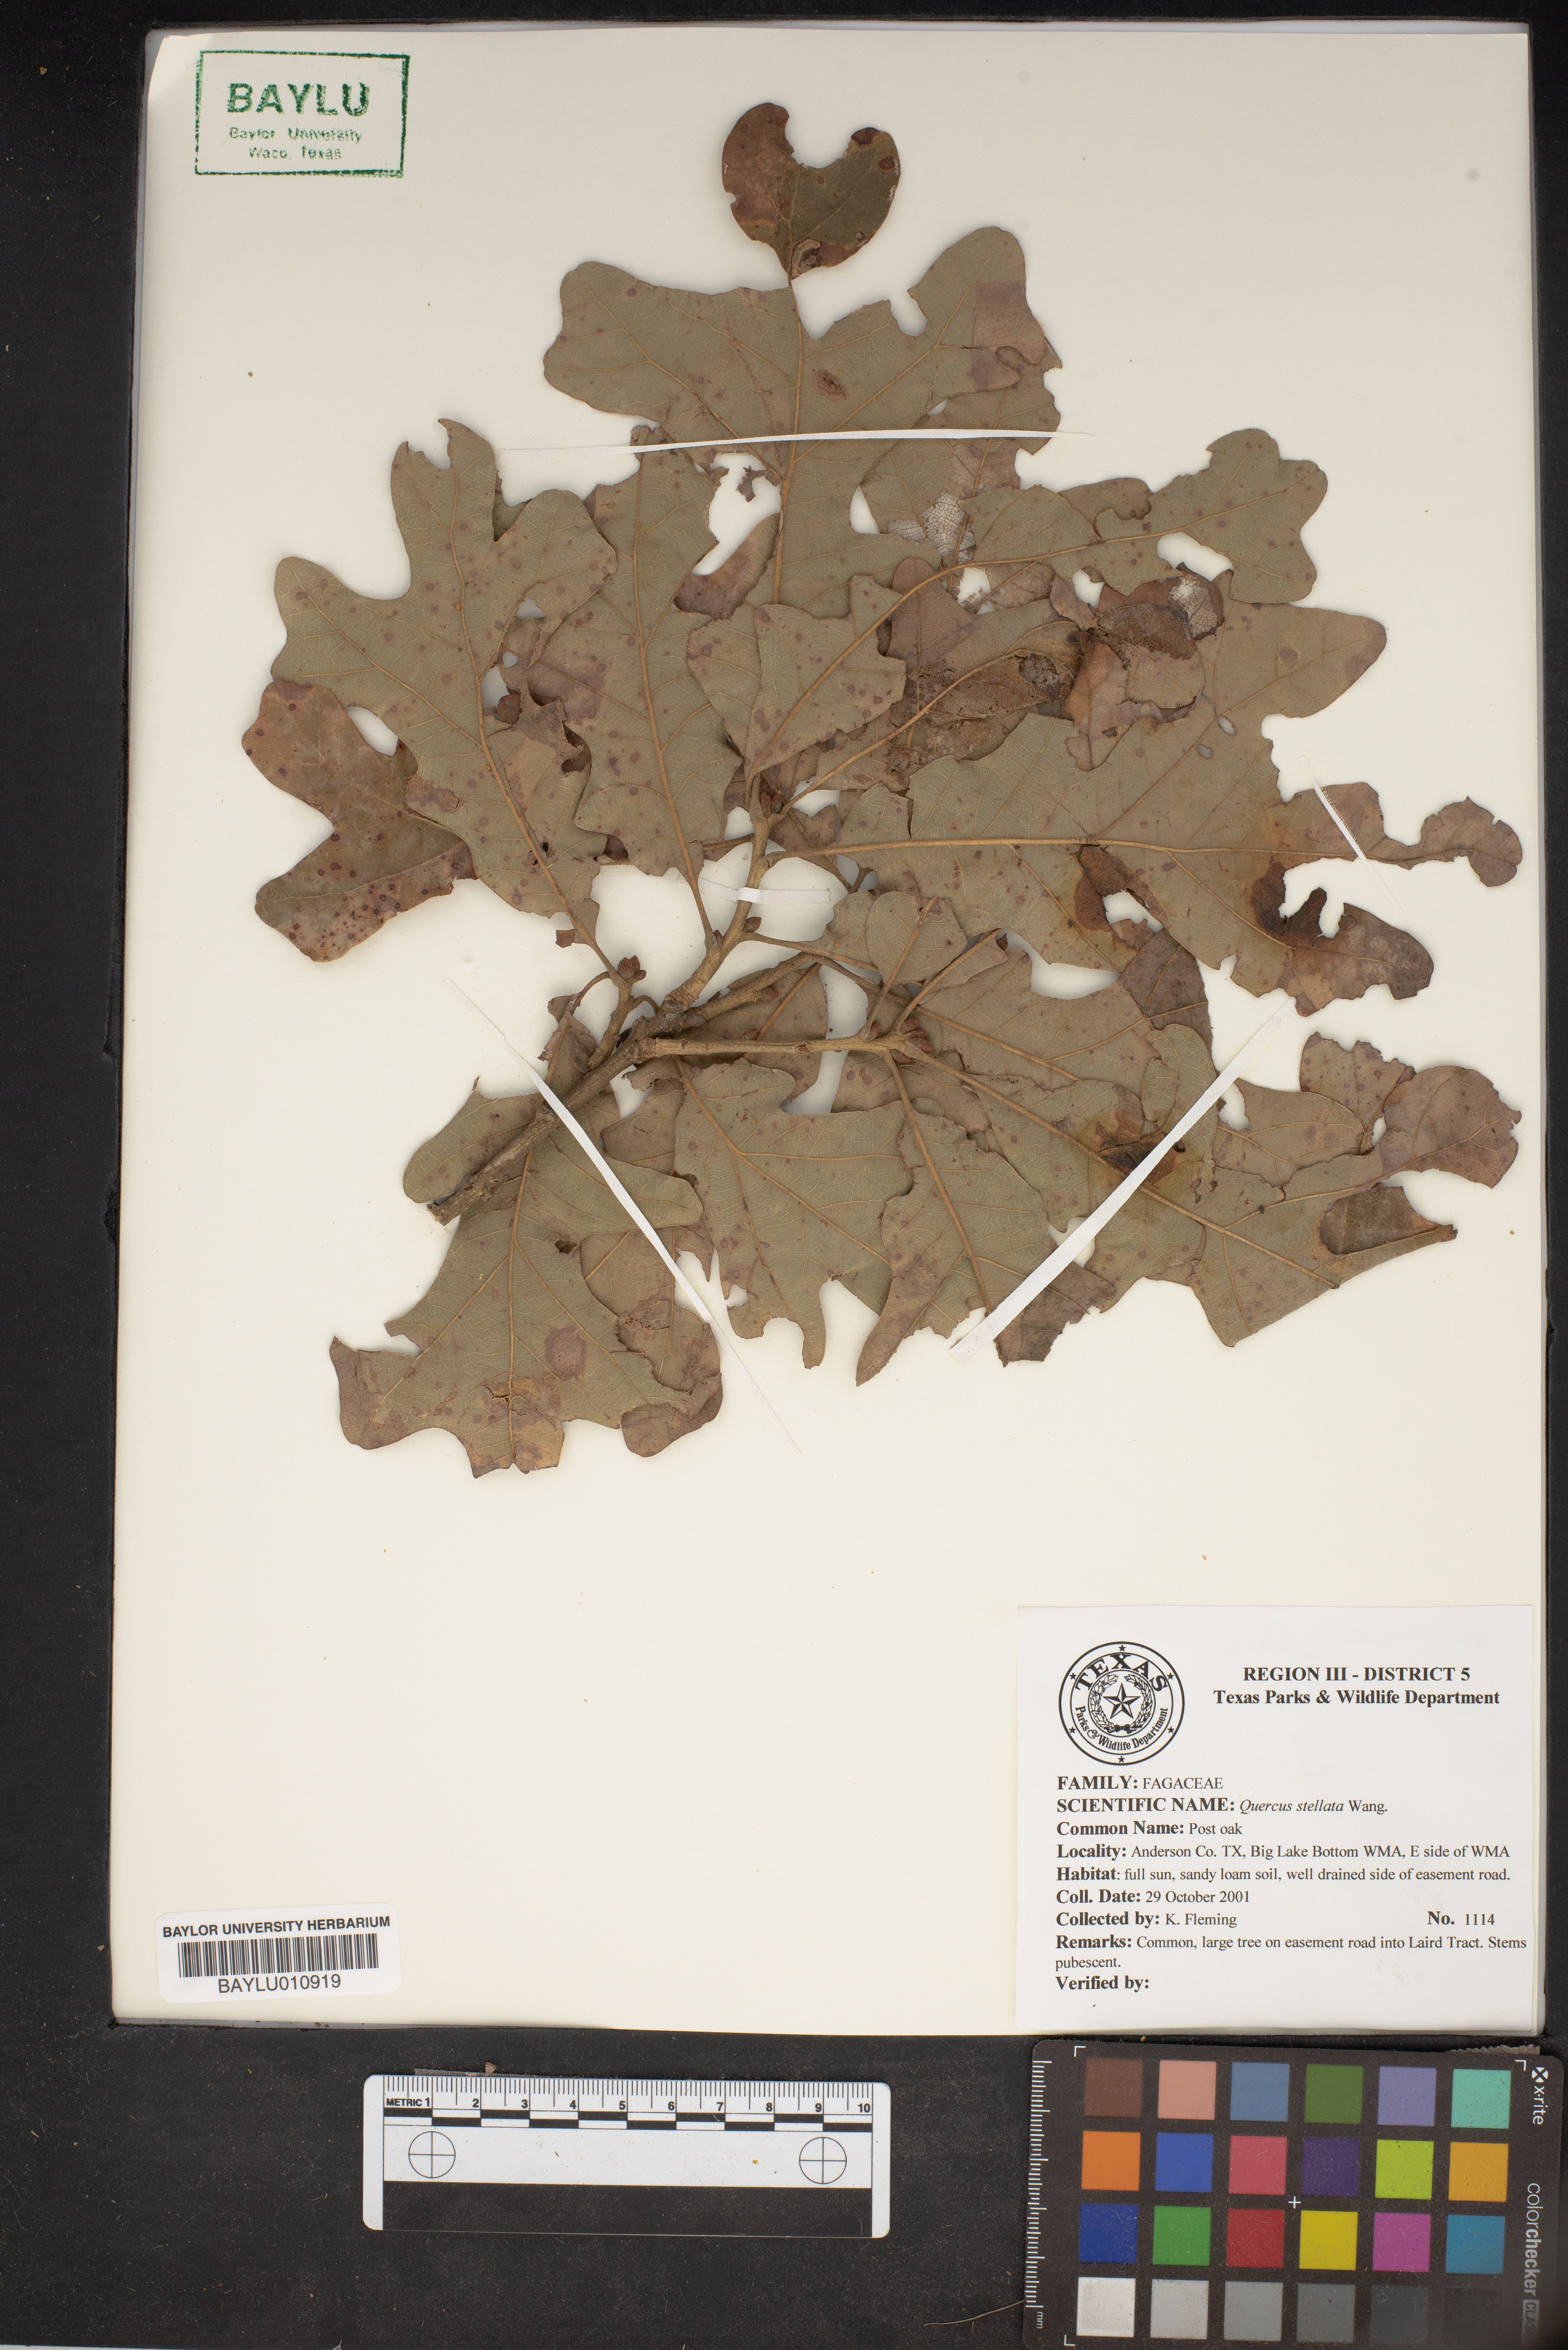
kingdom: Plantae
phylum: Tracheophyta
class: Magnoliopsida
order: Fagales
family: Fagaceae
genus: Quercus
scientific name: Quercus stellata
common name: Post oak
